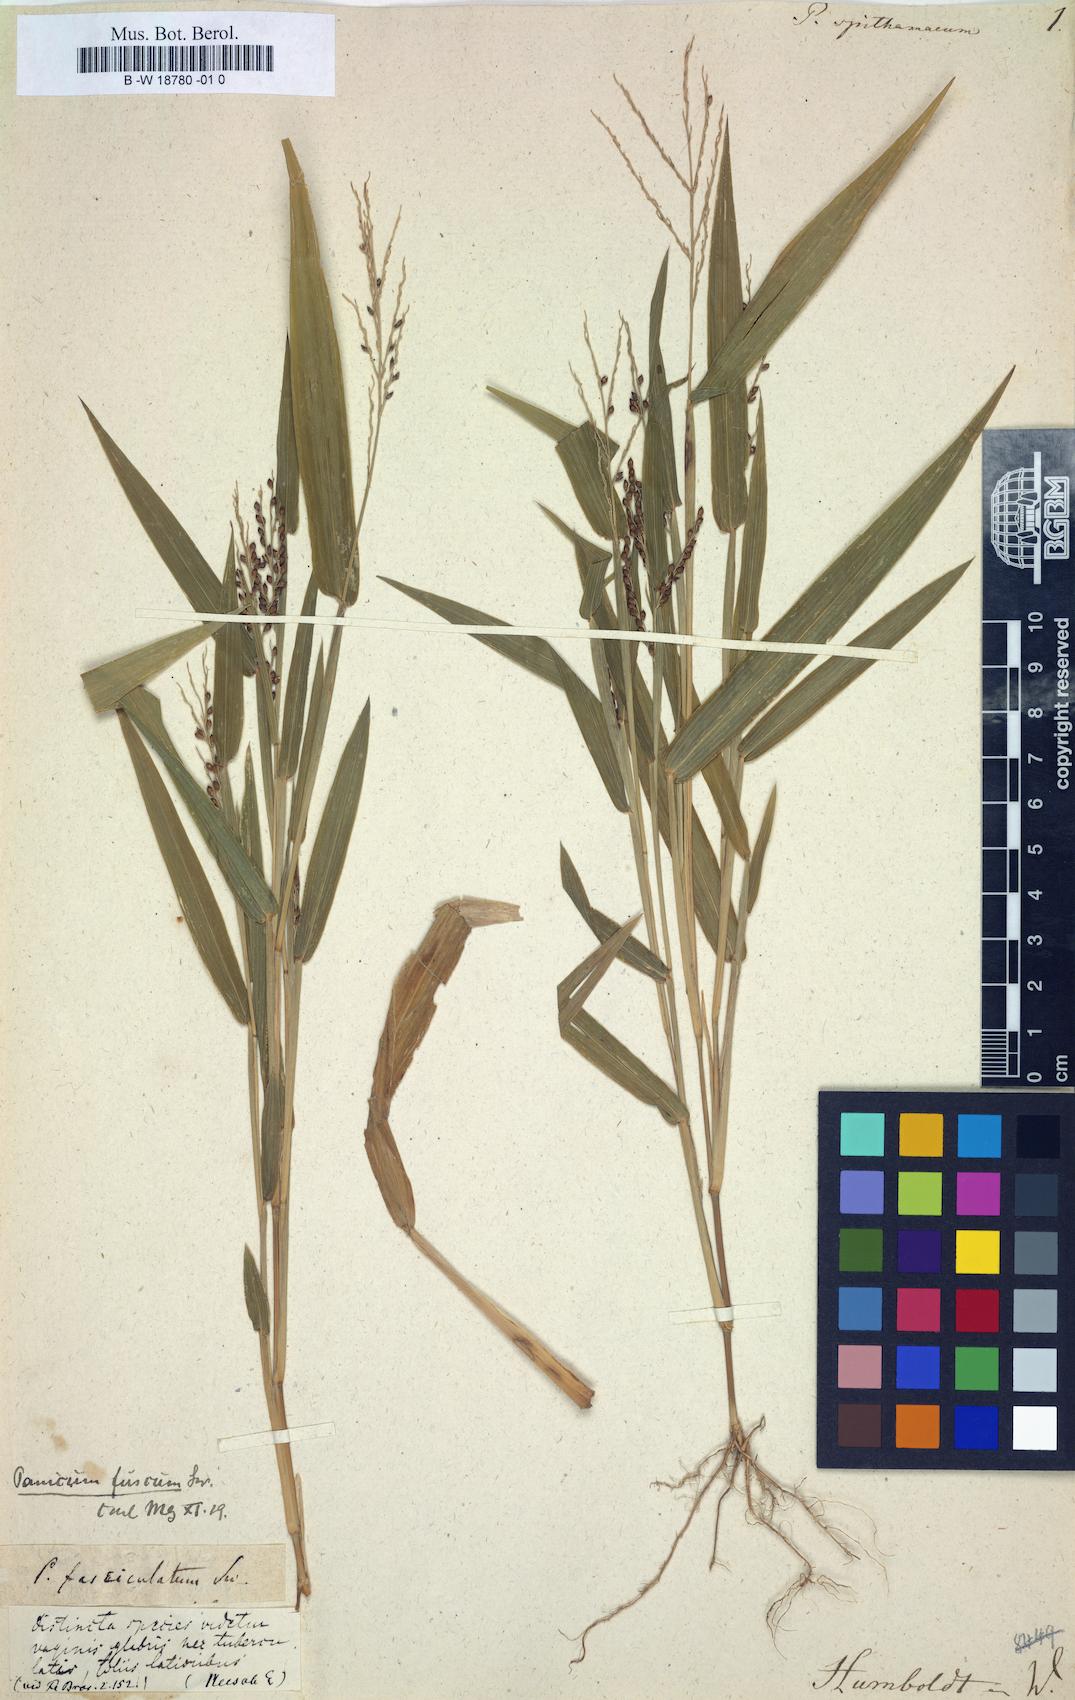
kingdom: Plantae
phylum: Tracheophyta
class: Liliopsida
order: Poales
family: Poaceae
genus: Urochloa
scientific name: Urochloa fusca
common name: Browntop signal grass
